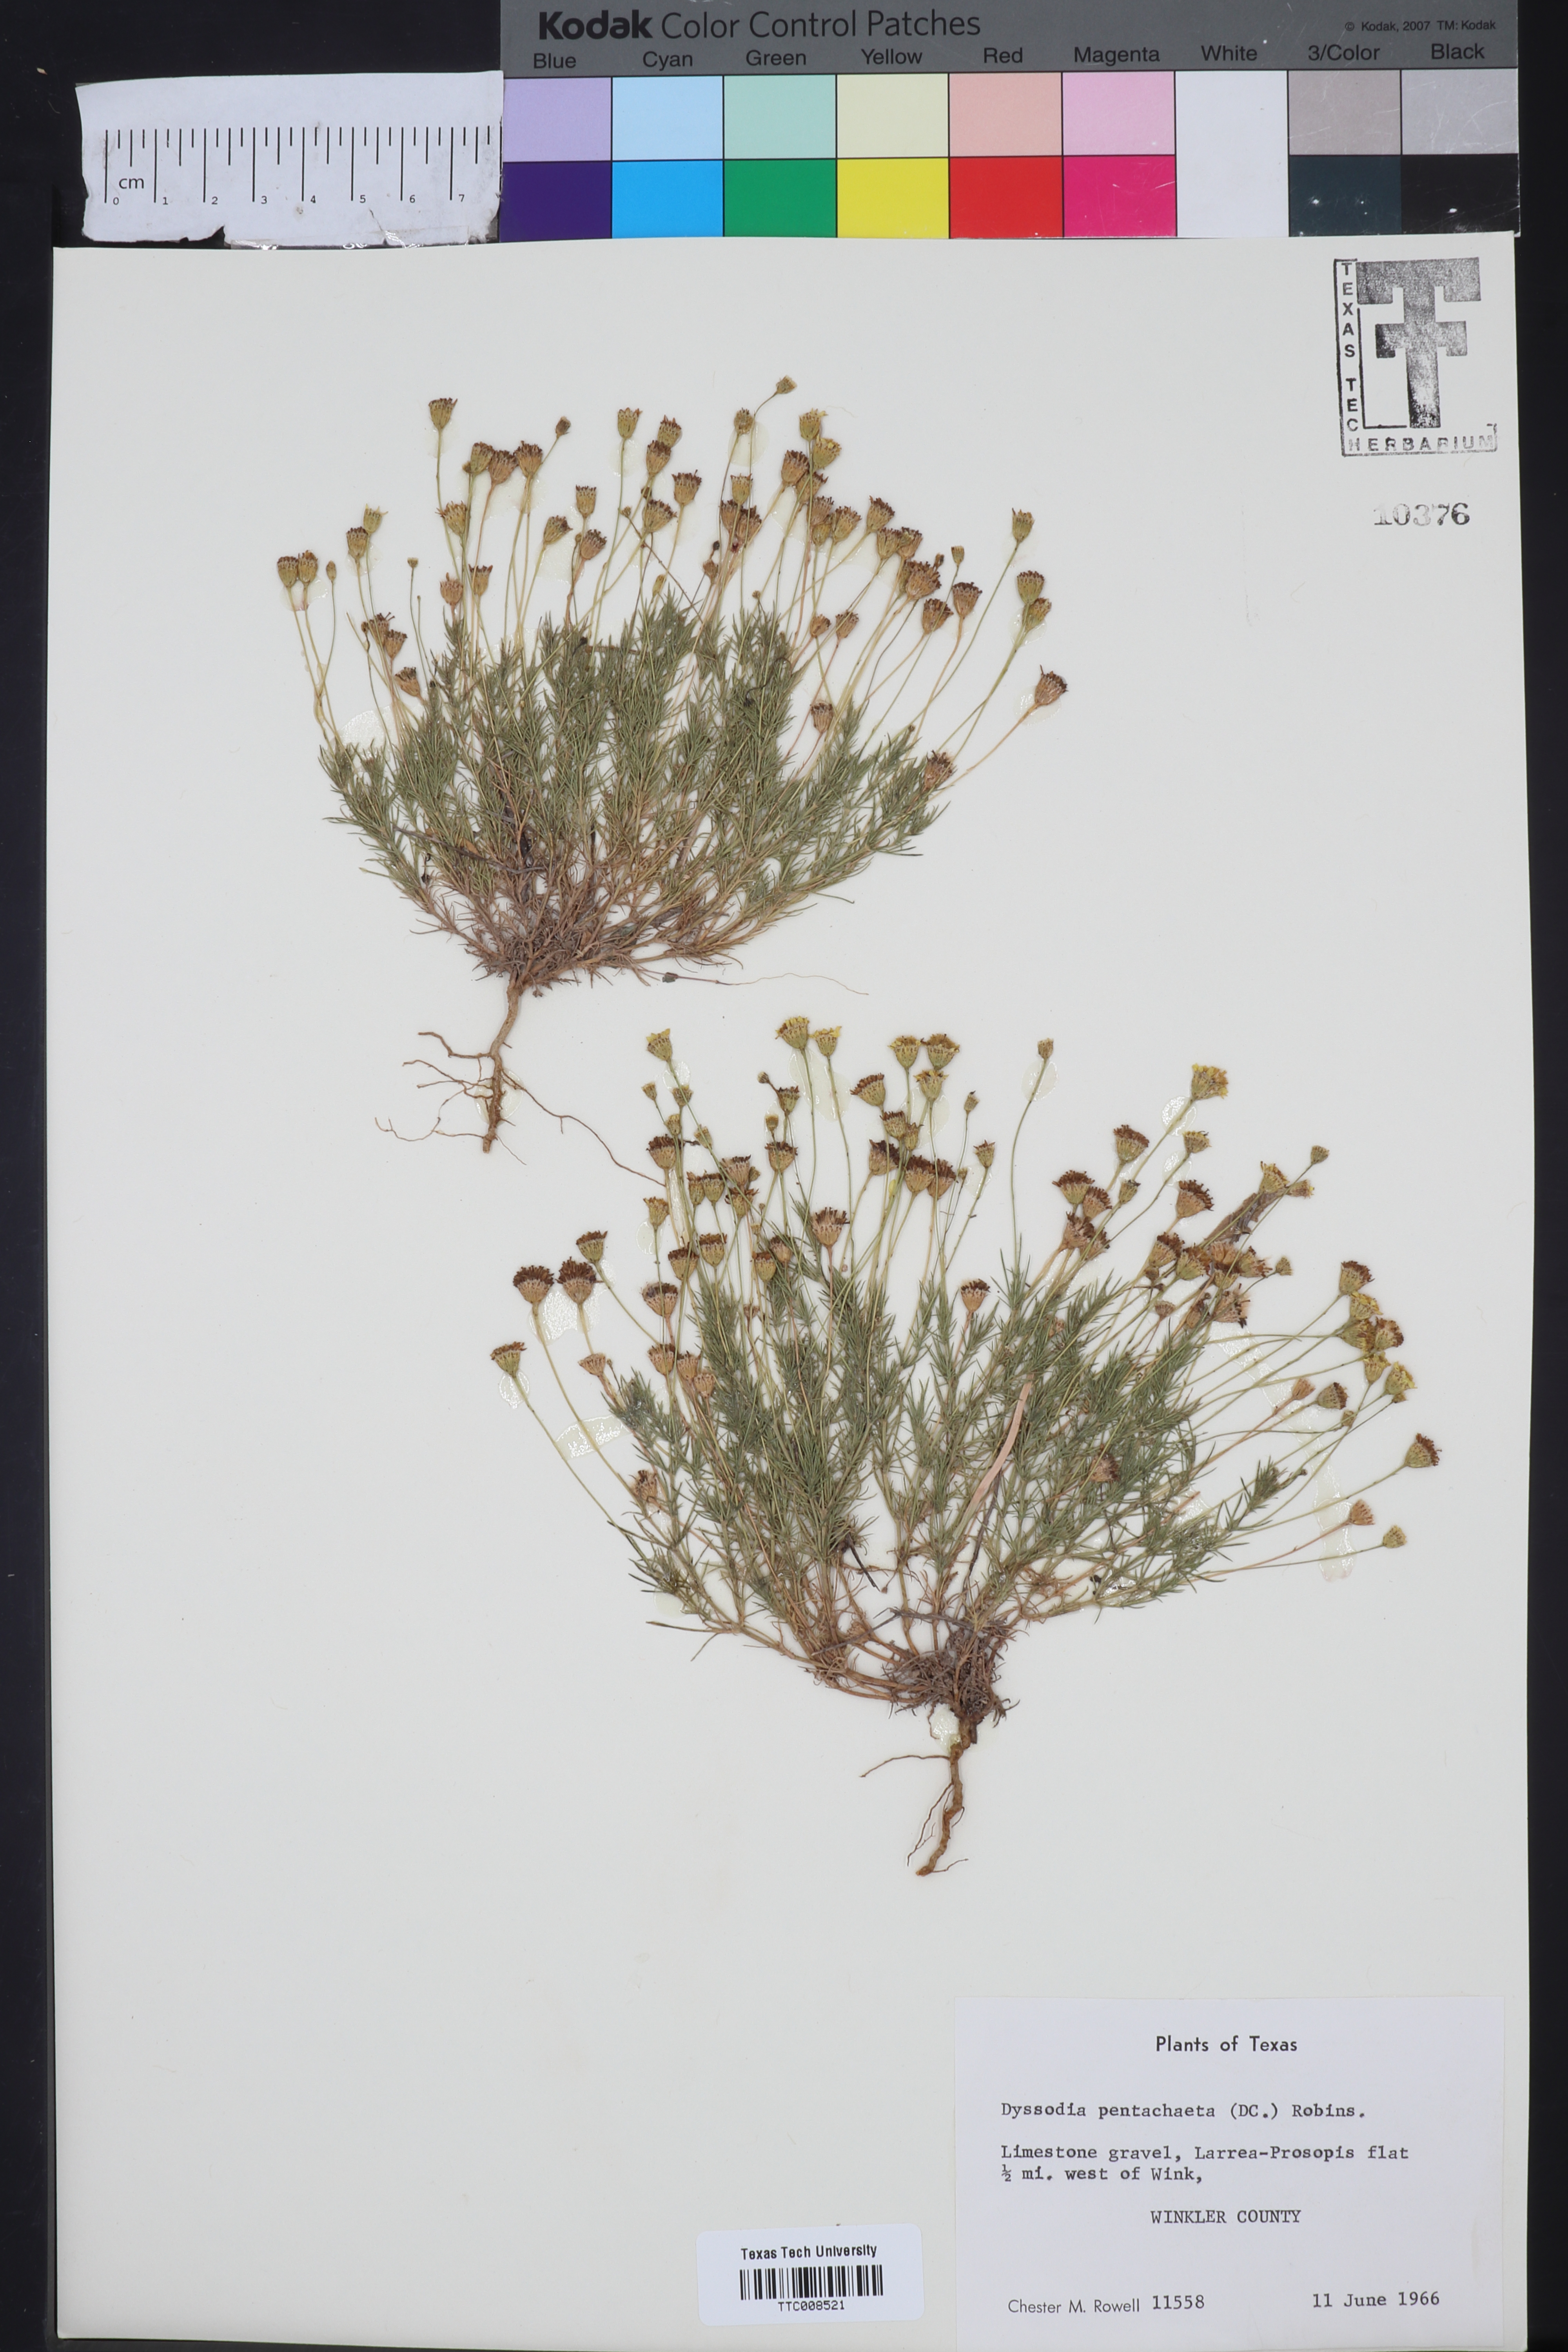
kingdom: Plantae
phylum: Tracheophyta
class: Magnoliopsida
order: Asterales
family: Asteraceae
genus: Thymophylla
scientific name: Thymophylla pentachaeta
